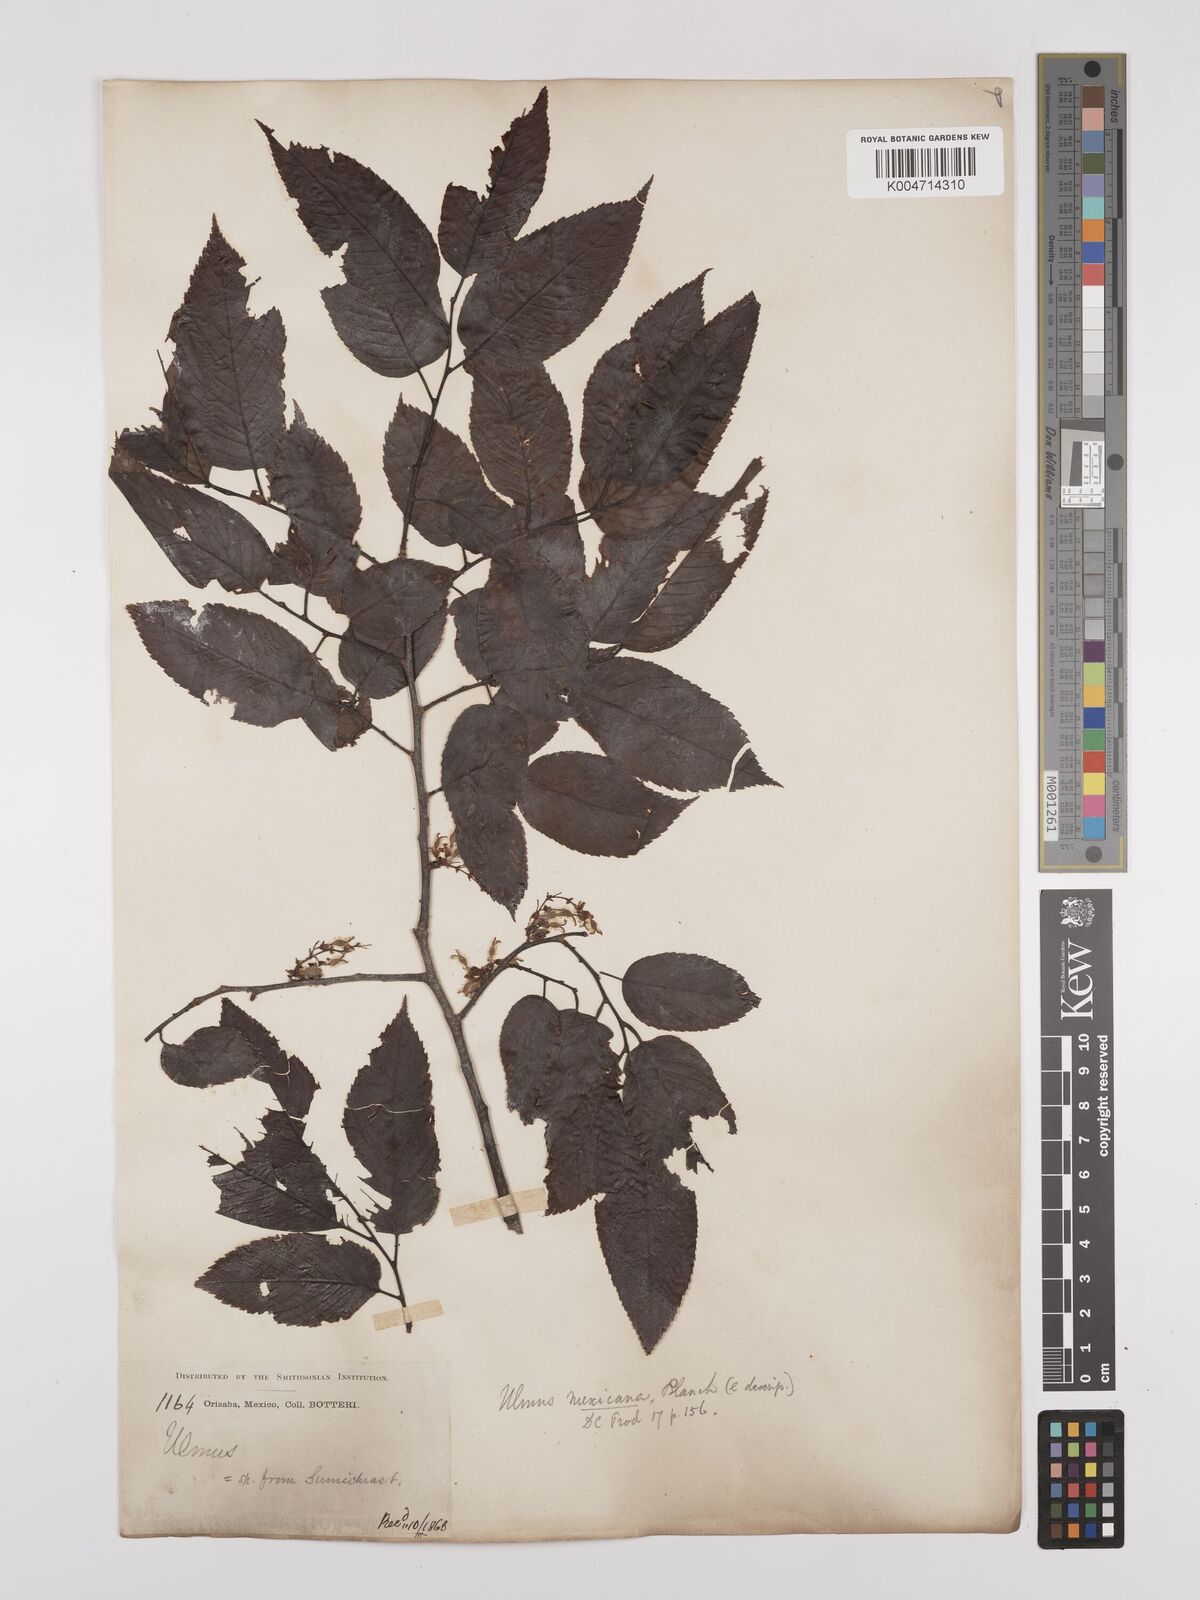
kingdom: Plantae
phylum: Tracheophyta
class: Magnoliopsida
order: Rosales
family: Ulmaceae
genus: Ulmus
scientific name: Ulmus mexicana
